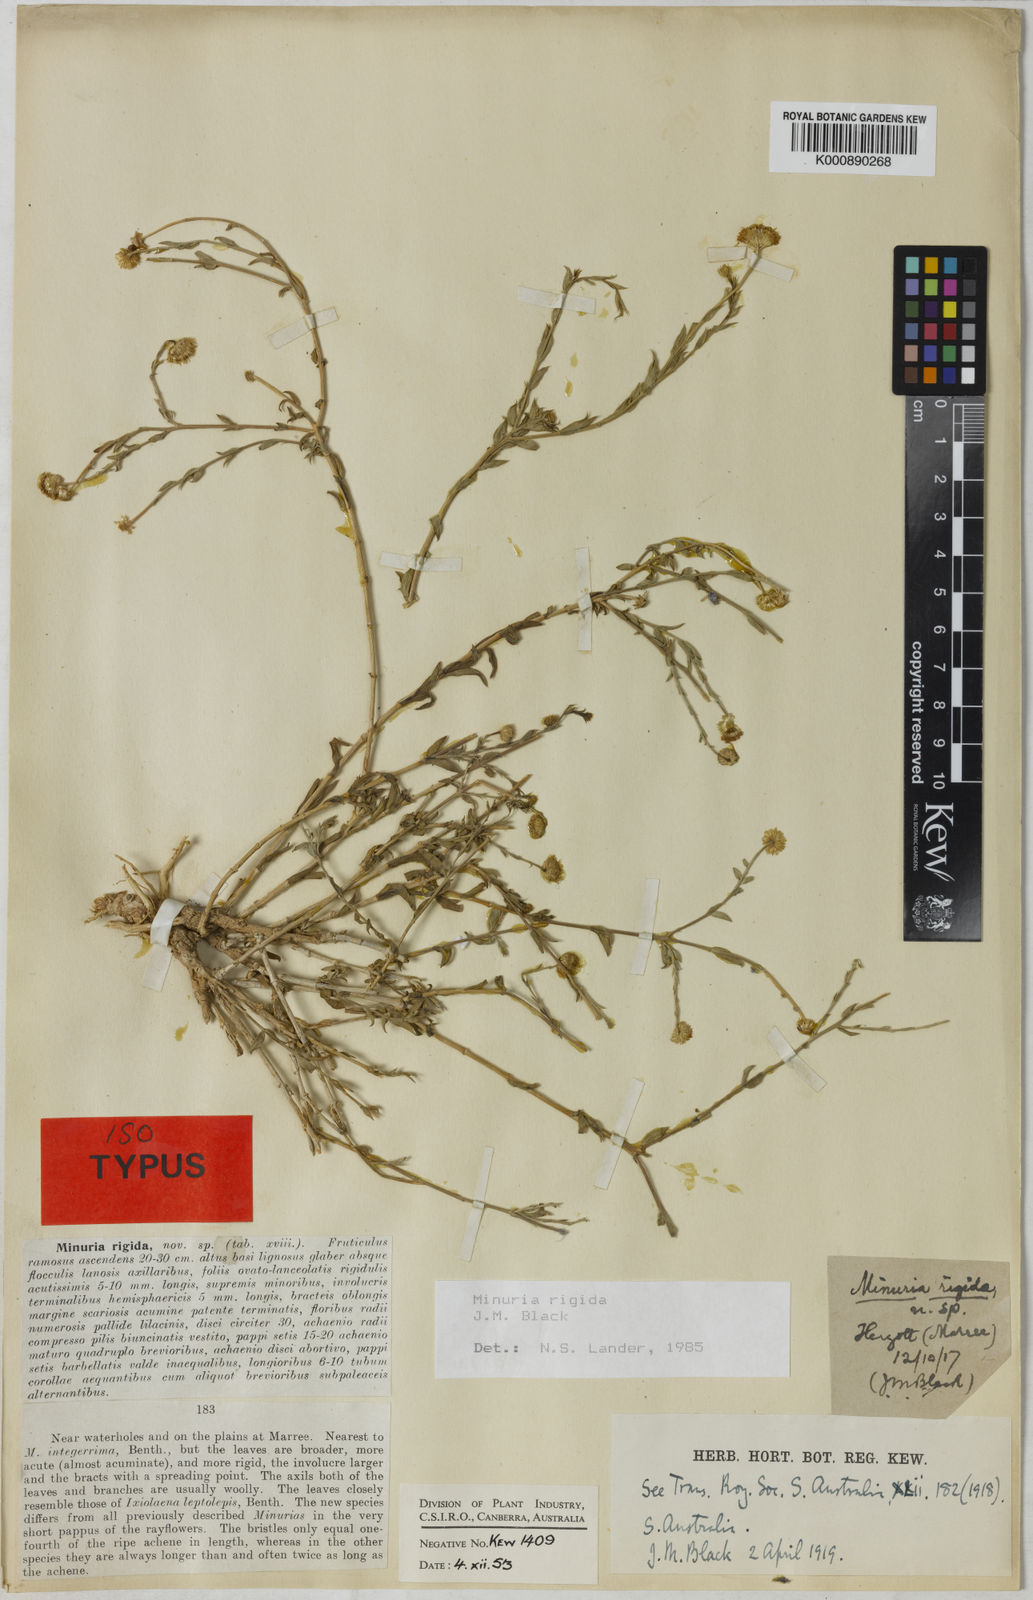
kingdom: Plantae
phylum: Tracheophyta
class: Magnoliopsida
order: Asterales
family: Asteraceae
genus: Minuria
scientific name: Minuria rigida
